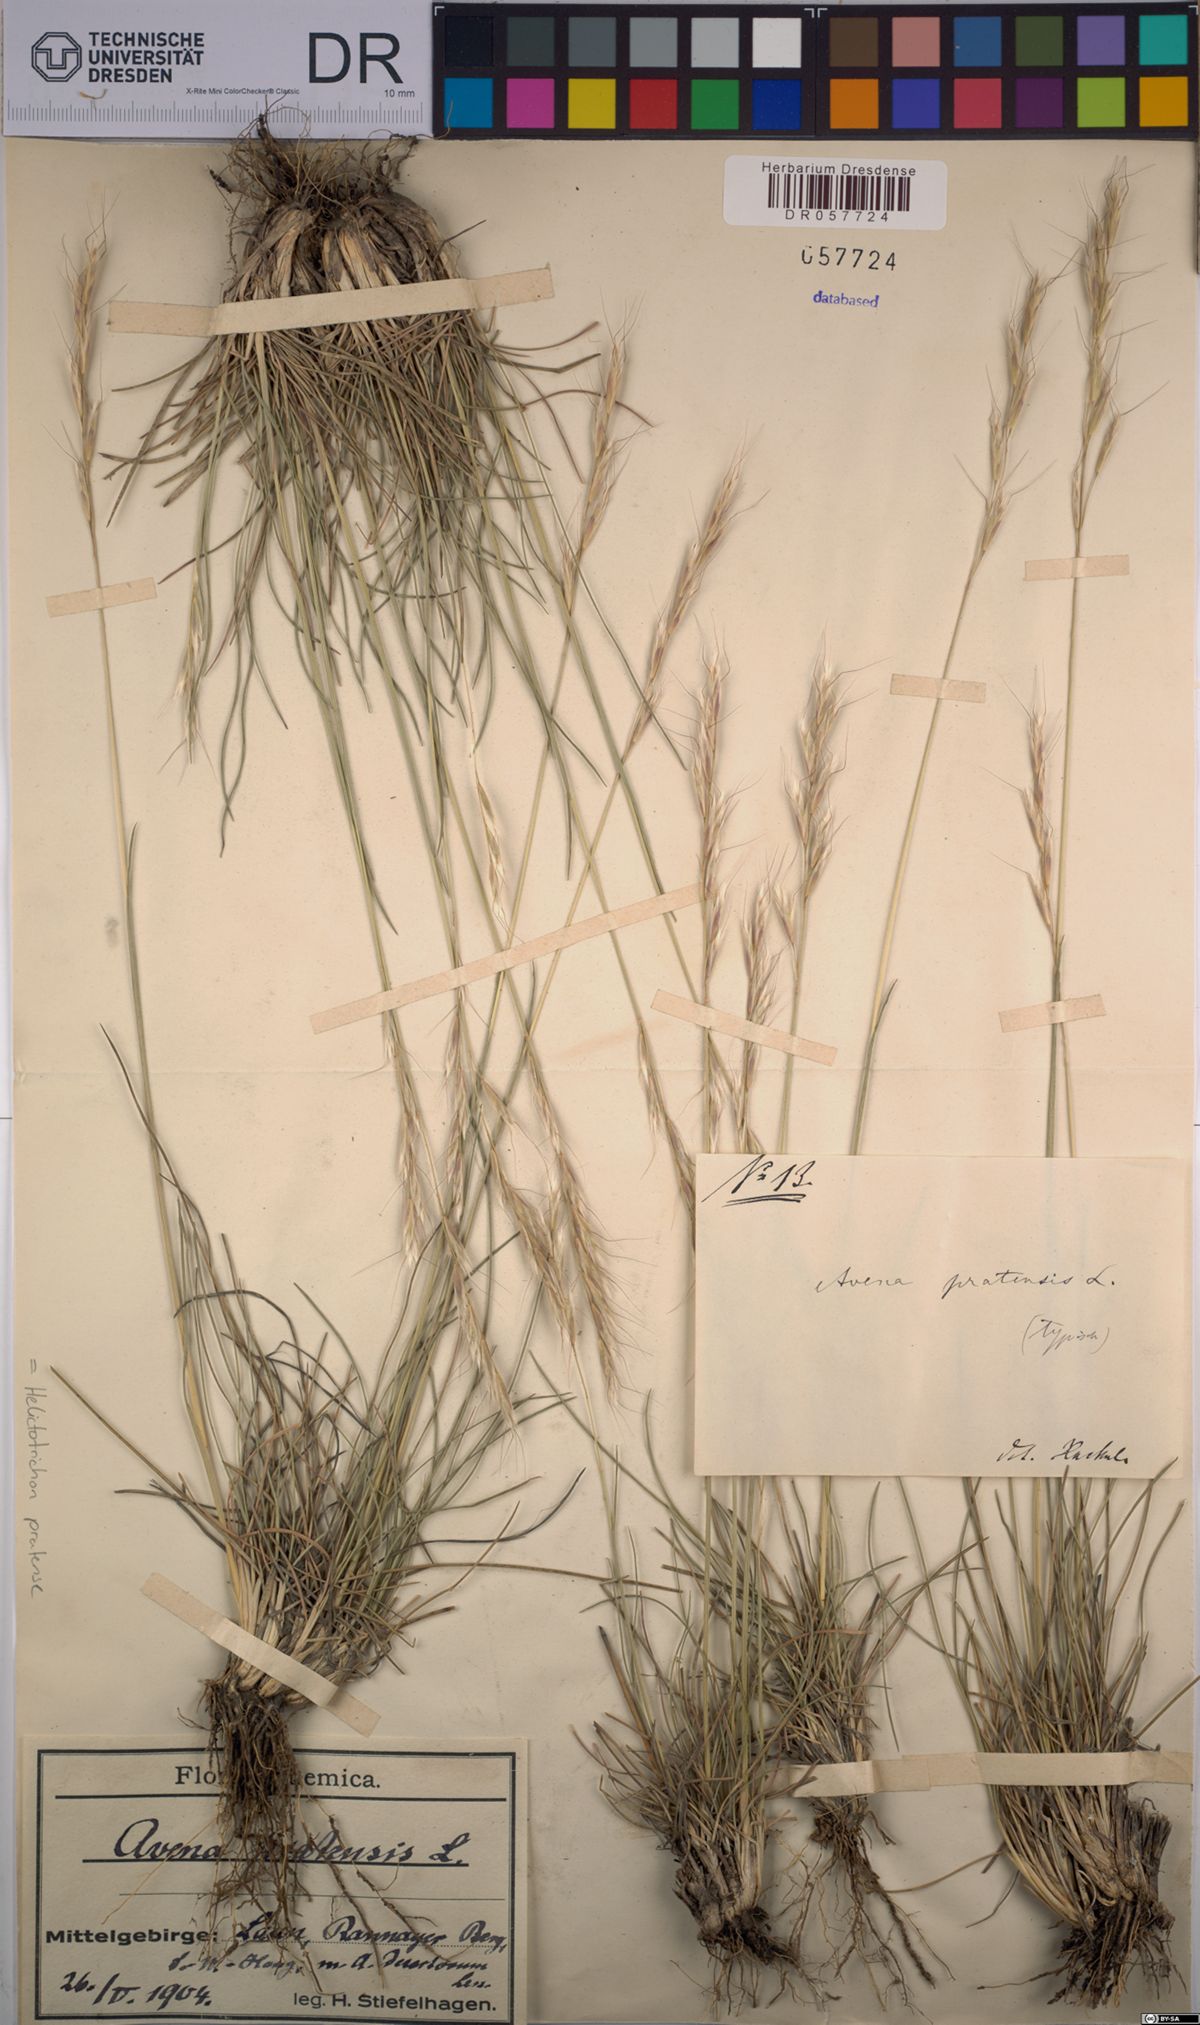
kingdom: Plantae
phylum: Tracheophyta
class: Liliopsida
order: Poales
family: Poaceae
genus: Helictochloa
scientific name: Helictochloa pratensis
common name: Meadow oat grass
